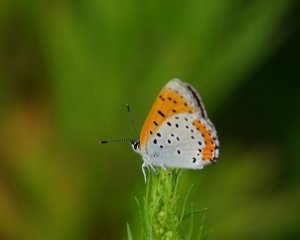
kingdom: Animalia
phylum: Arthropoda
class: Insecta
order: Lepidoptera
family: Sesiidae
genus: Sesia
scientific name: Sesia Lycaena hyllus
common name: Bronze Copper
